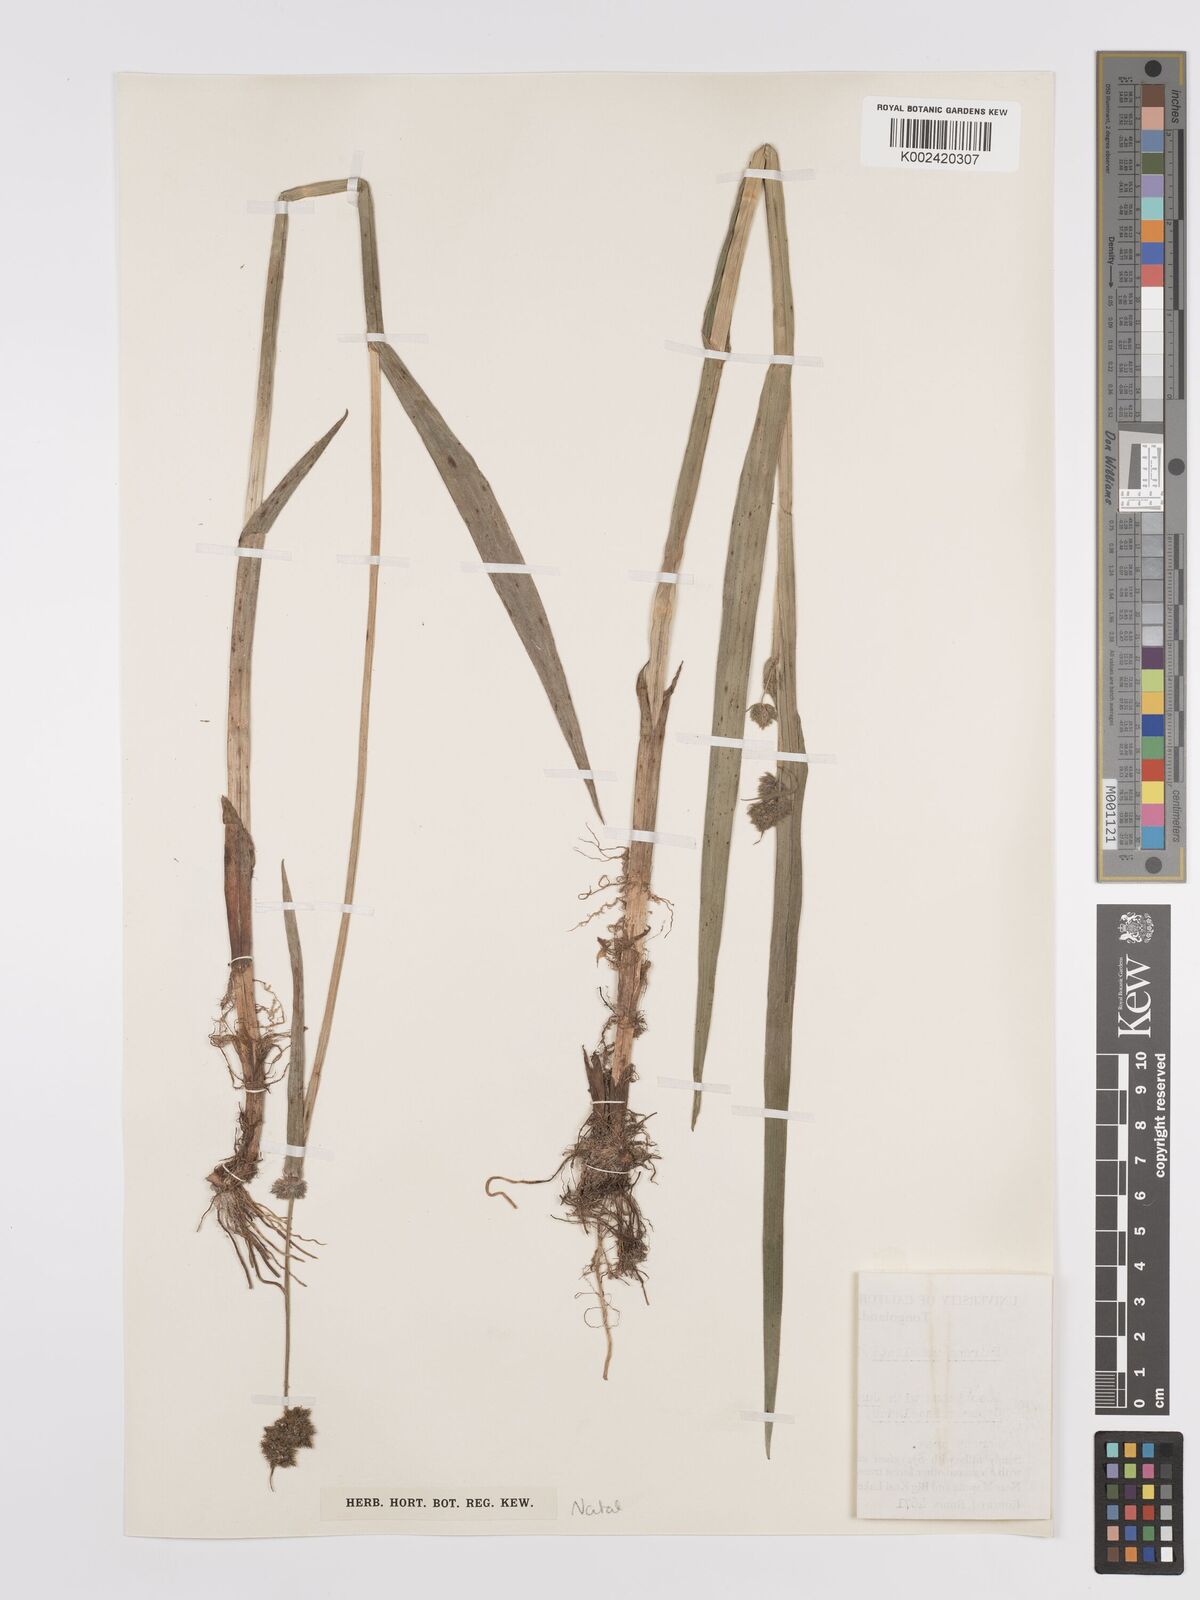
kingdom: Plantae
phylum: Tracheophyta
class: Liliopsida
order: Poales
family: Cyperaceae
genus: Fuirena
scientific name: Fuirena umbellata
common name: Yefen
